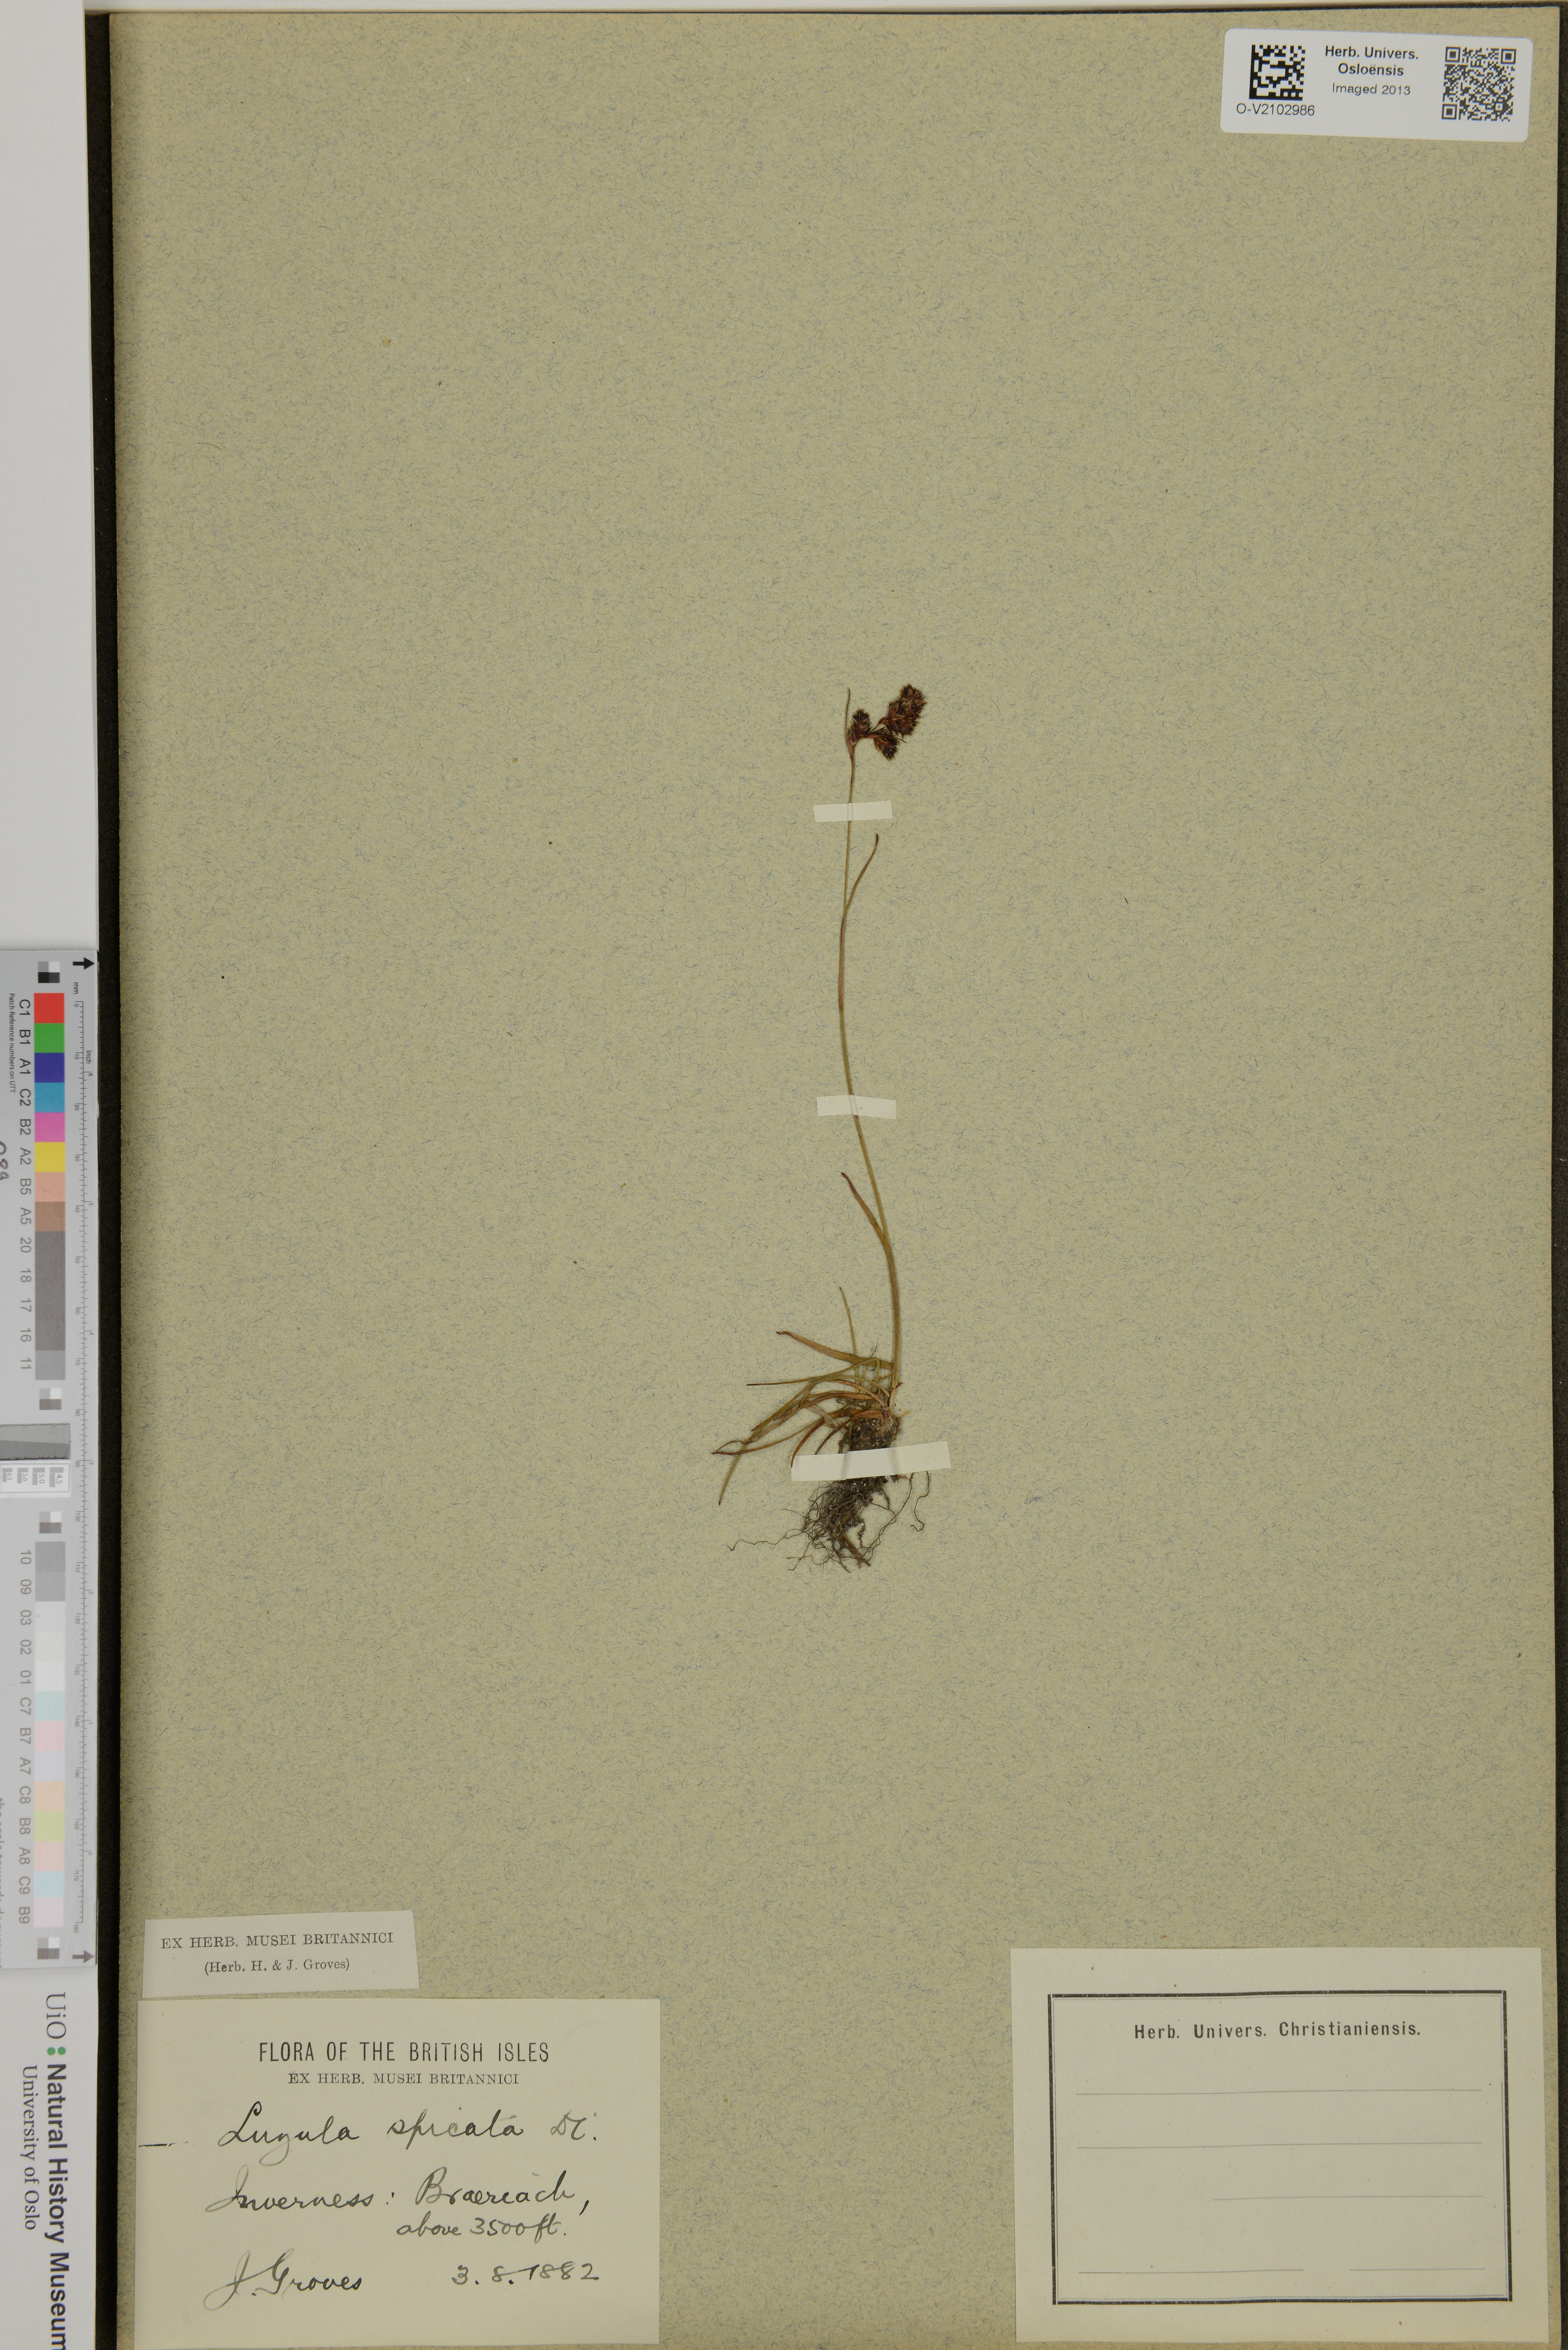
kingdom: Plantae
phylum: Tracheophyta
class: Liliopsida
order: Poales
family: Juncaceae
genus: Luzula
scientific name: Luzula spicata
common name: Spiked wood-rush
